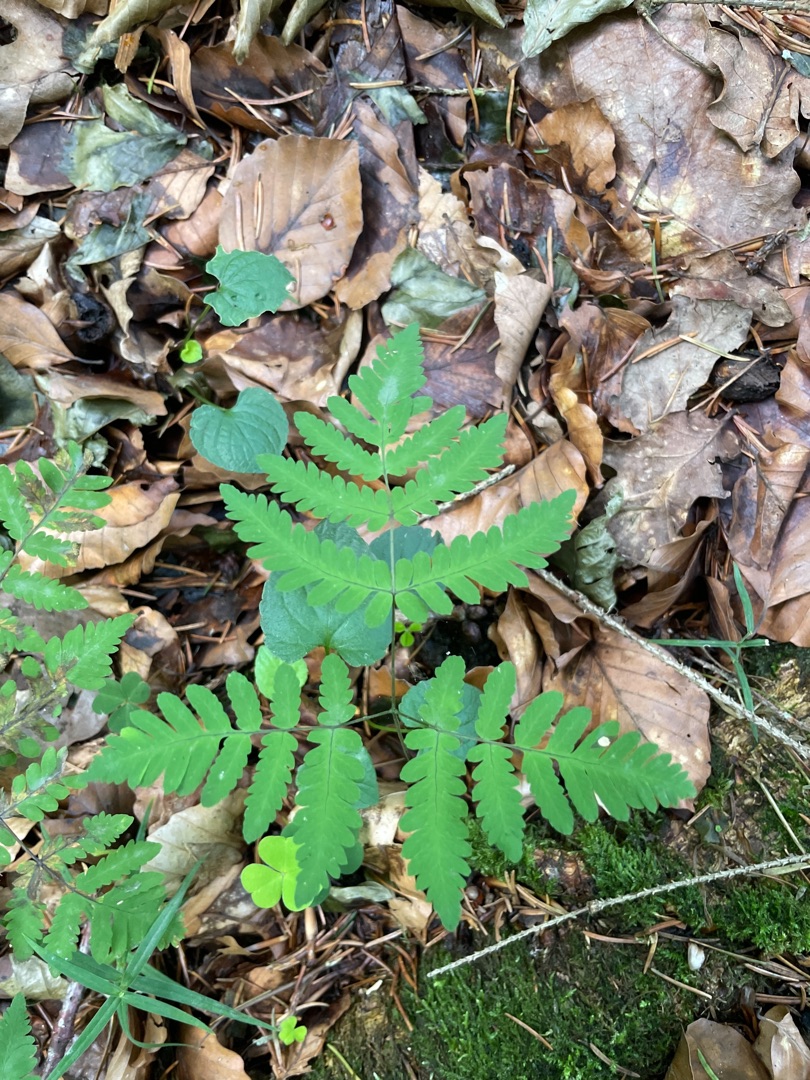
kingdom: Plantae
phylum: Tracheophyta
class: Polypodiopsida
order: Polypodiales
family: Cystopteridaceae
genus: Gymnocarpium
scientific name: Gymnocarpium dryopteris
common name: Tredelt egebregne
